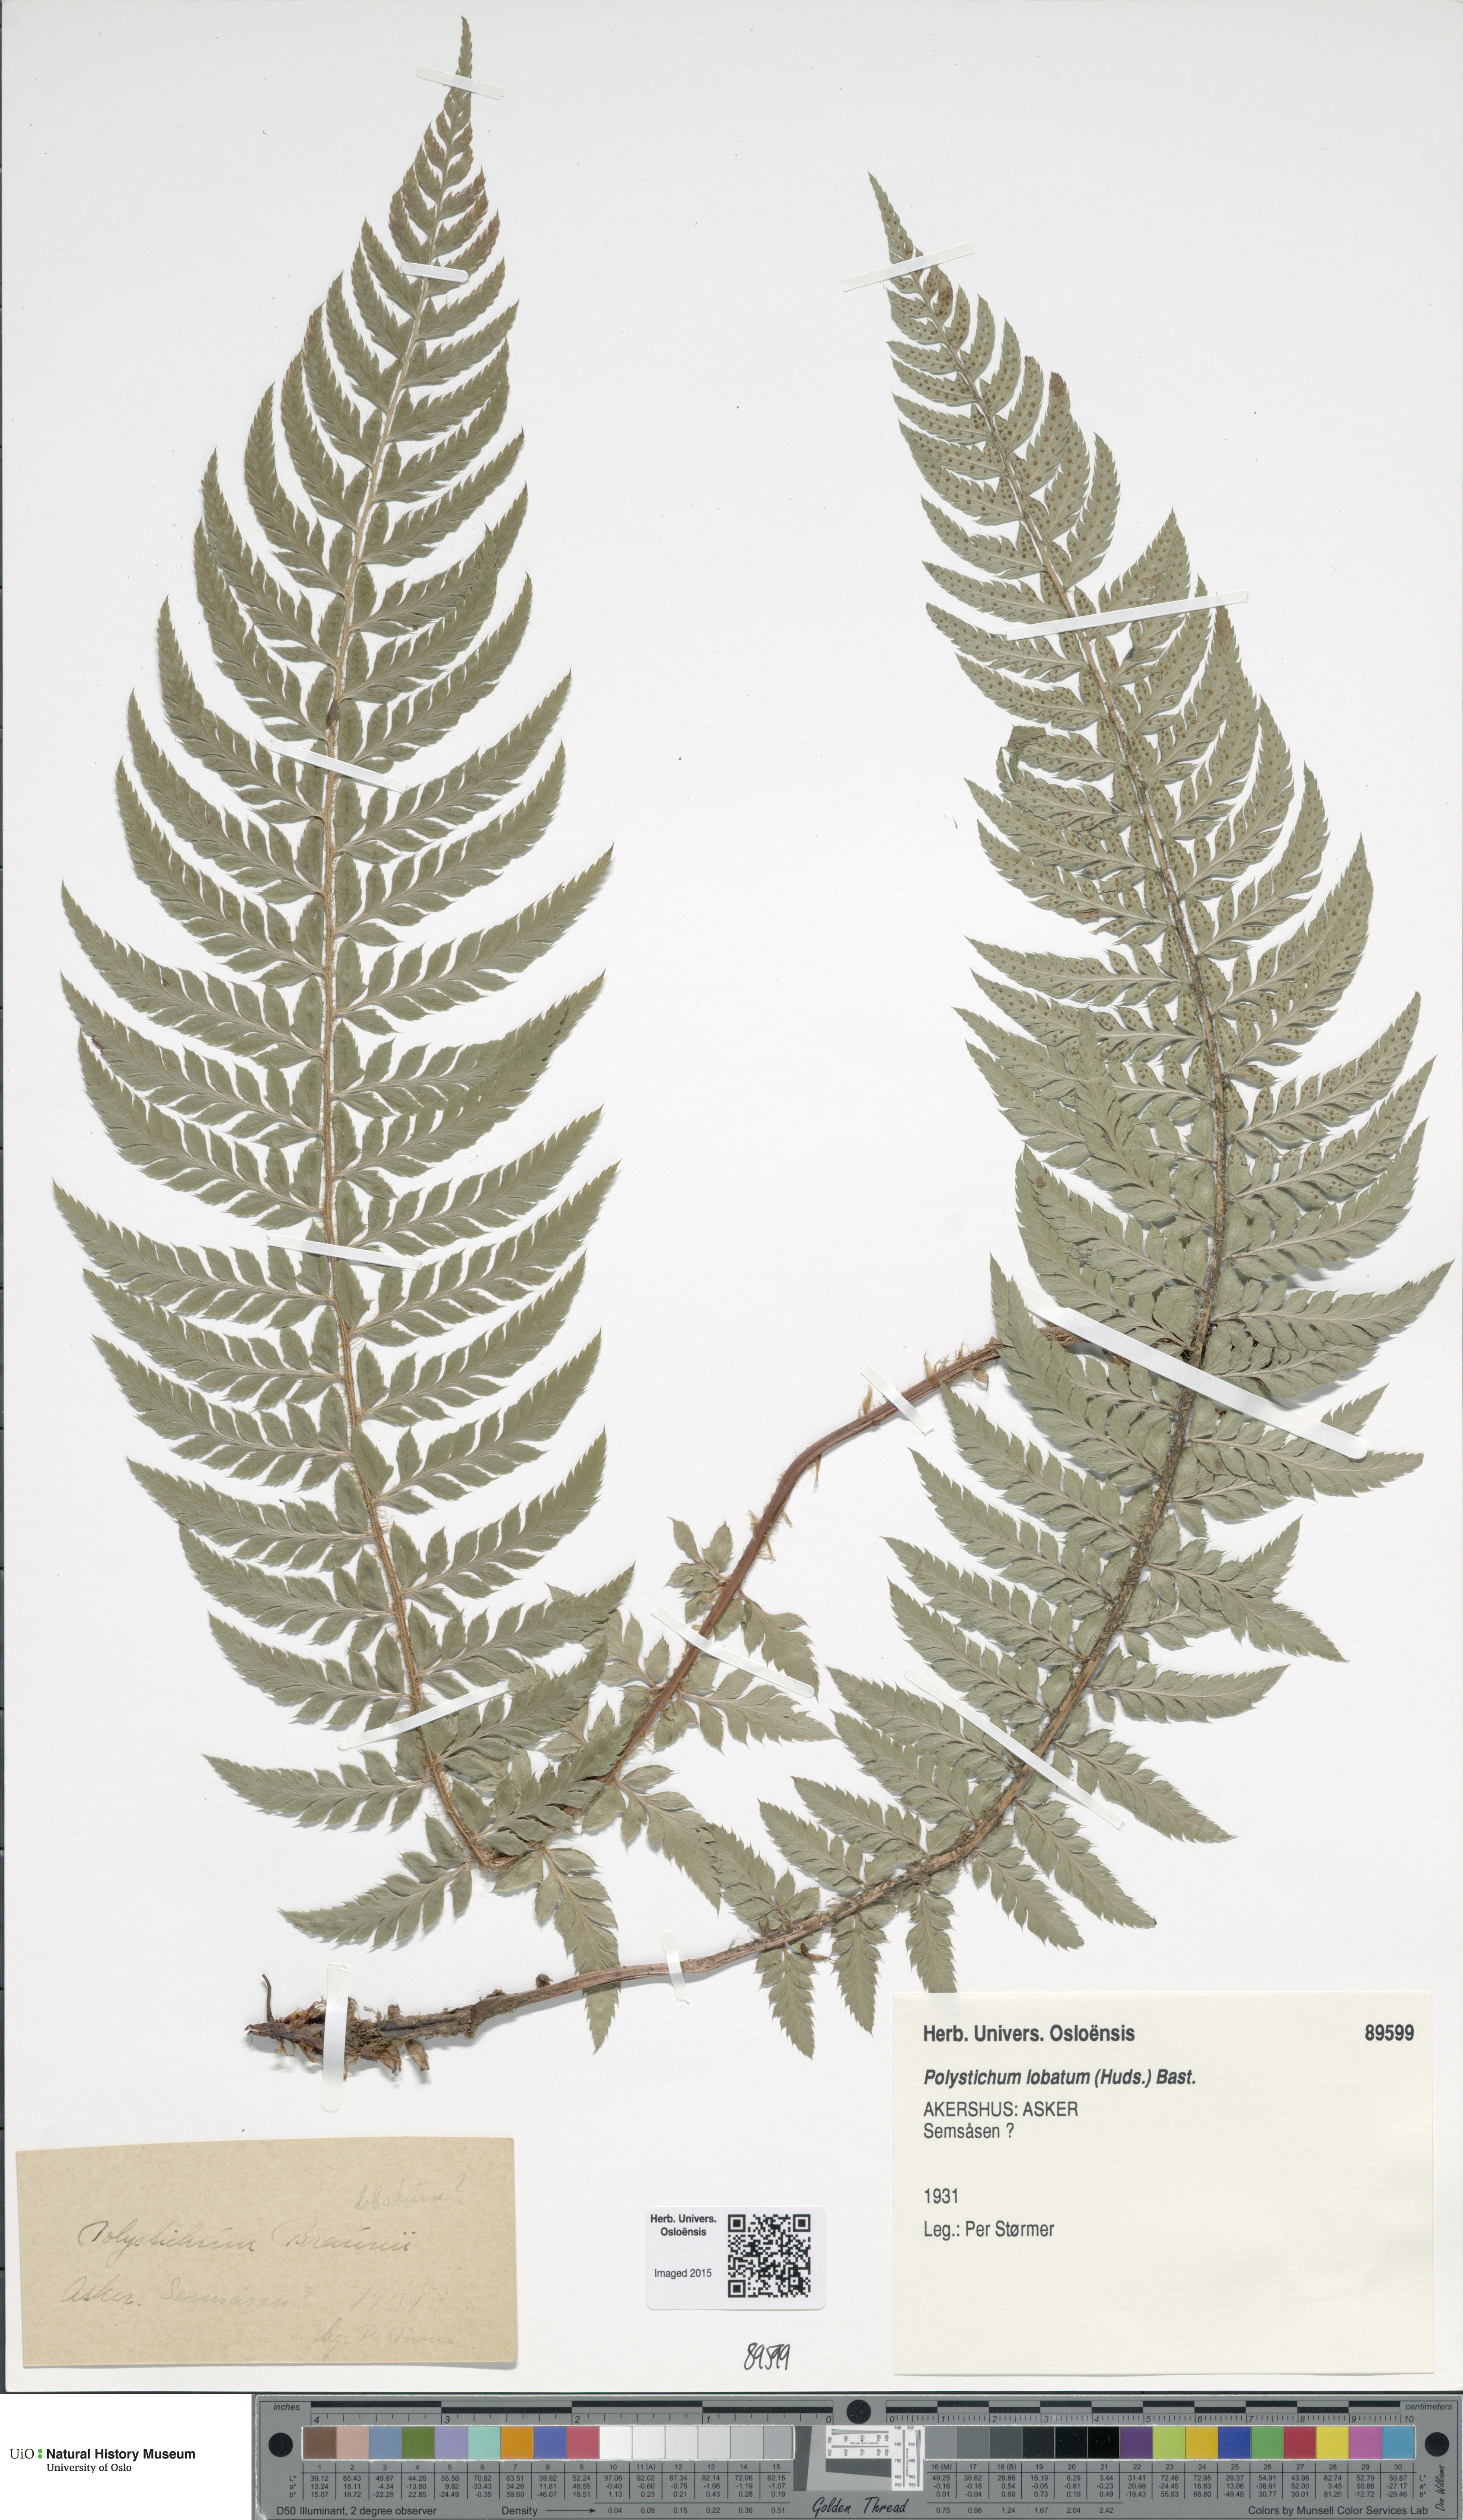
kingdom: Plantae
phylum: Tracheophyta
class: Polypodiopsida
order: Polypodiales
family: Dryopteridaceae
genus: Polystichum
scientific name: Polystichum aculeatum
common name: Hard shield-fern
